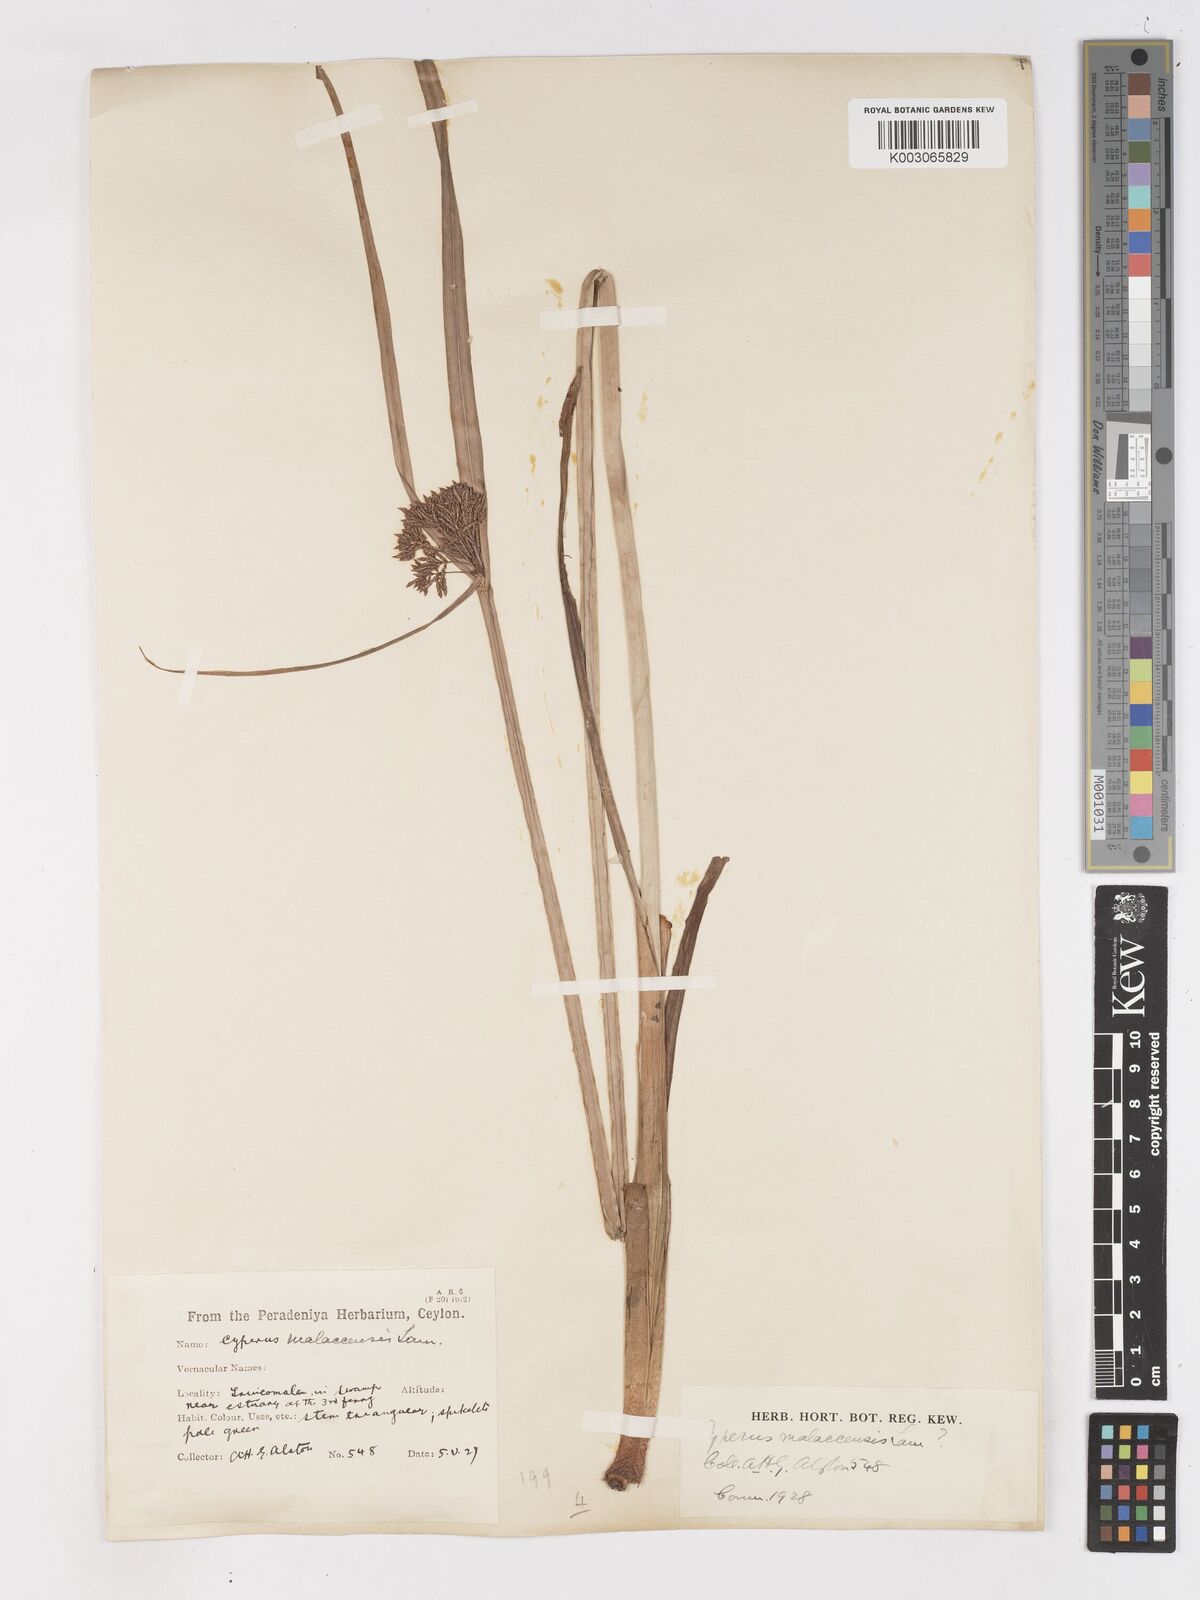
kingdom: Plantae
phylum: Tracheophyta
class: Liliopsida
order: Poales
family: Cyperaceae
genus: Cyperus
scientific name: Cyperus malaccensis
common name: Shichito matgrass
